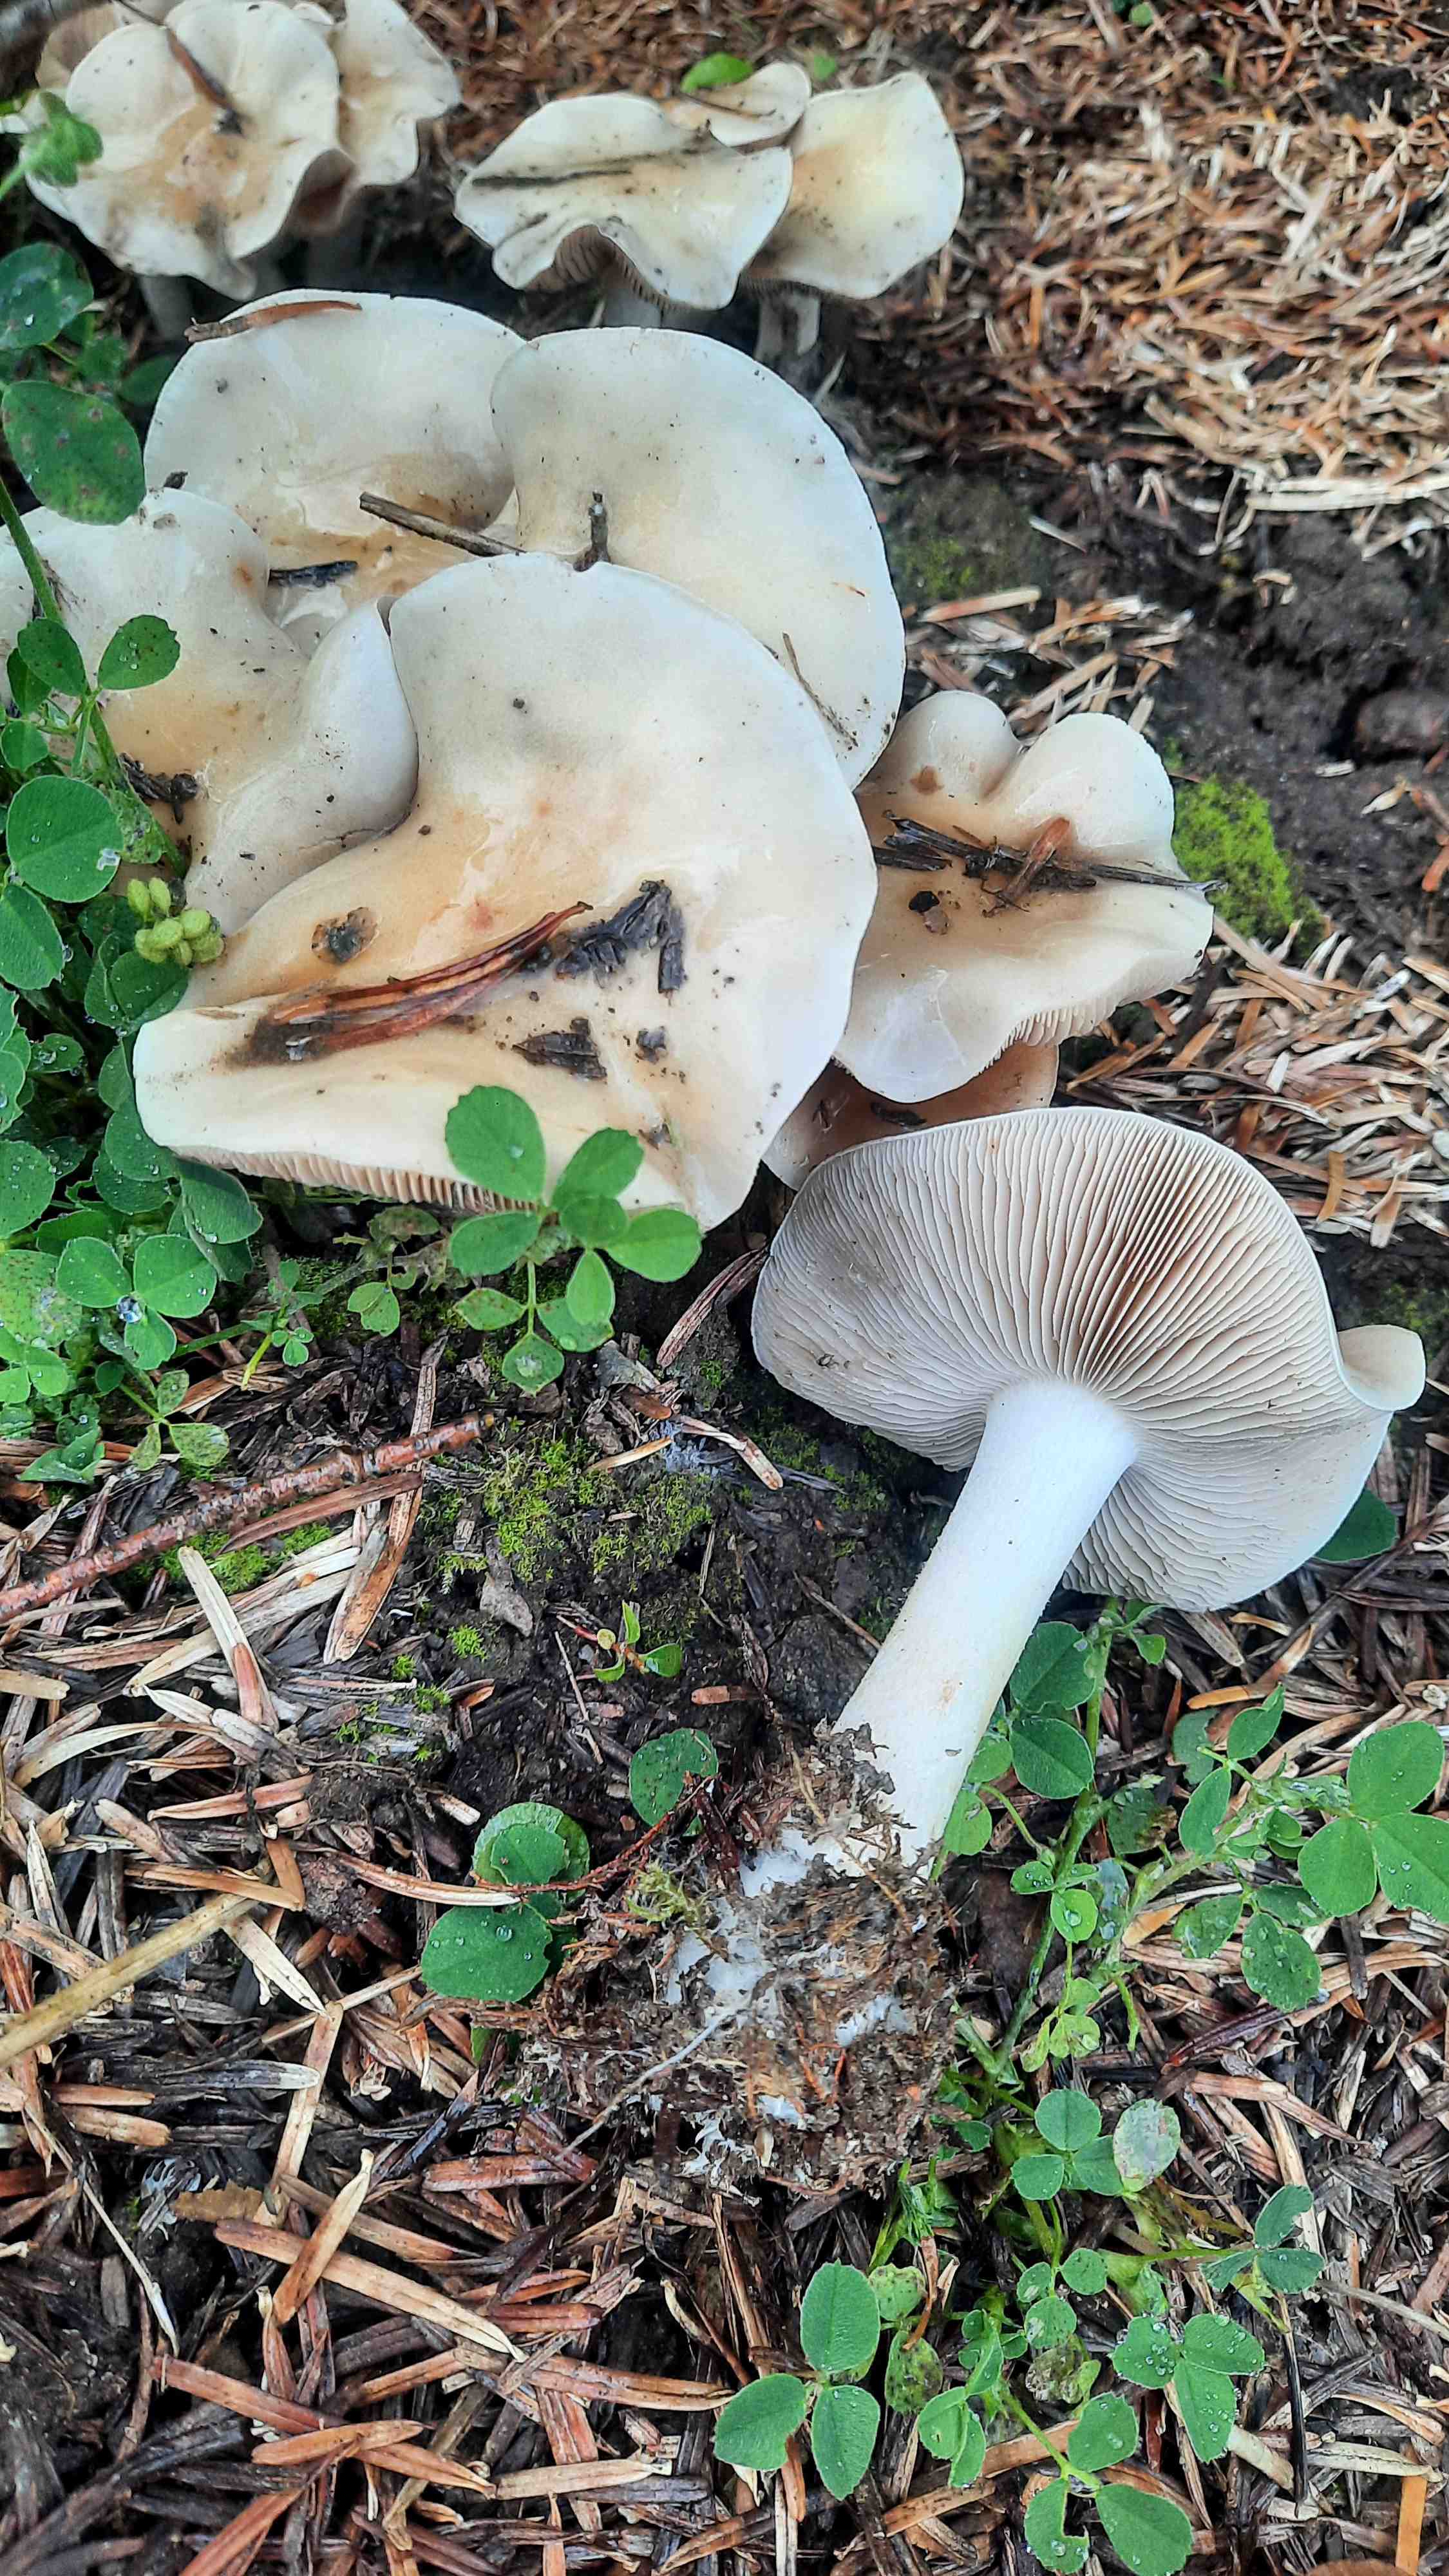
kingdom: Fungi
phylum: Basidiomycota
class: Agaricomycetes
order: Agaricales
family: Hymenogastraceae
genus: Hebeloma
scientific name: Hebeloma crustuliniforme
